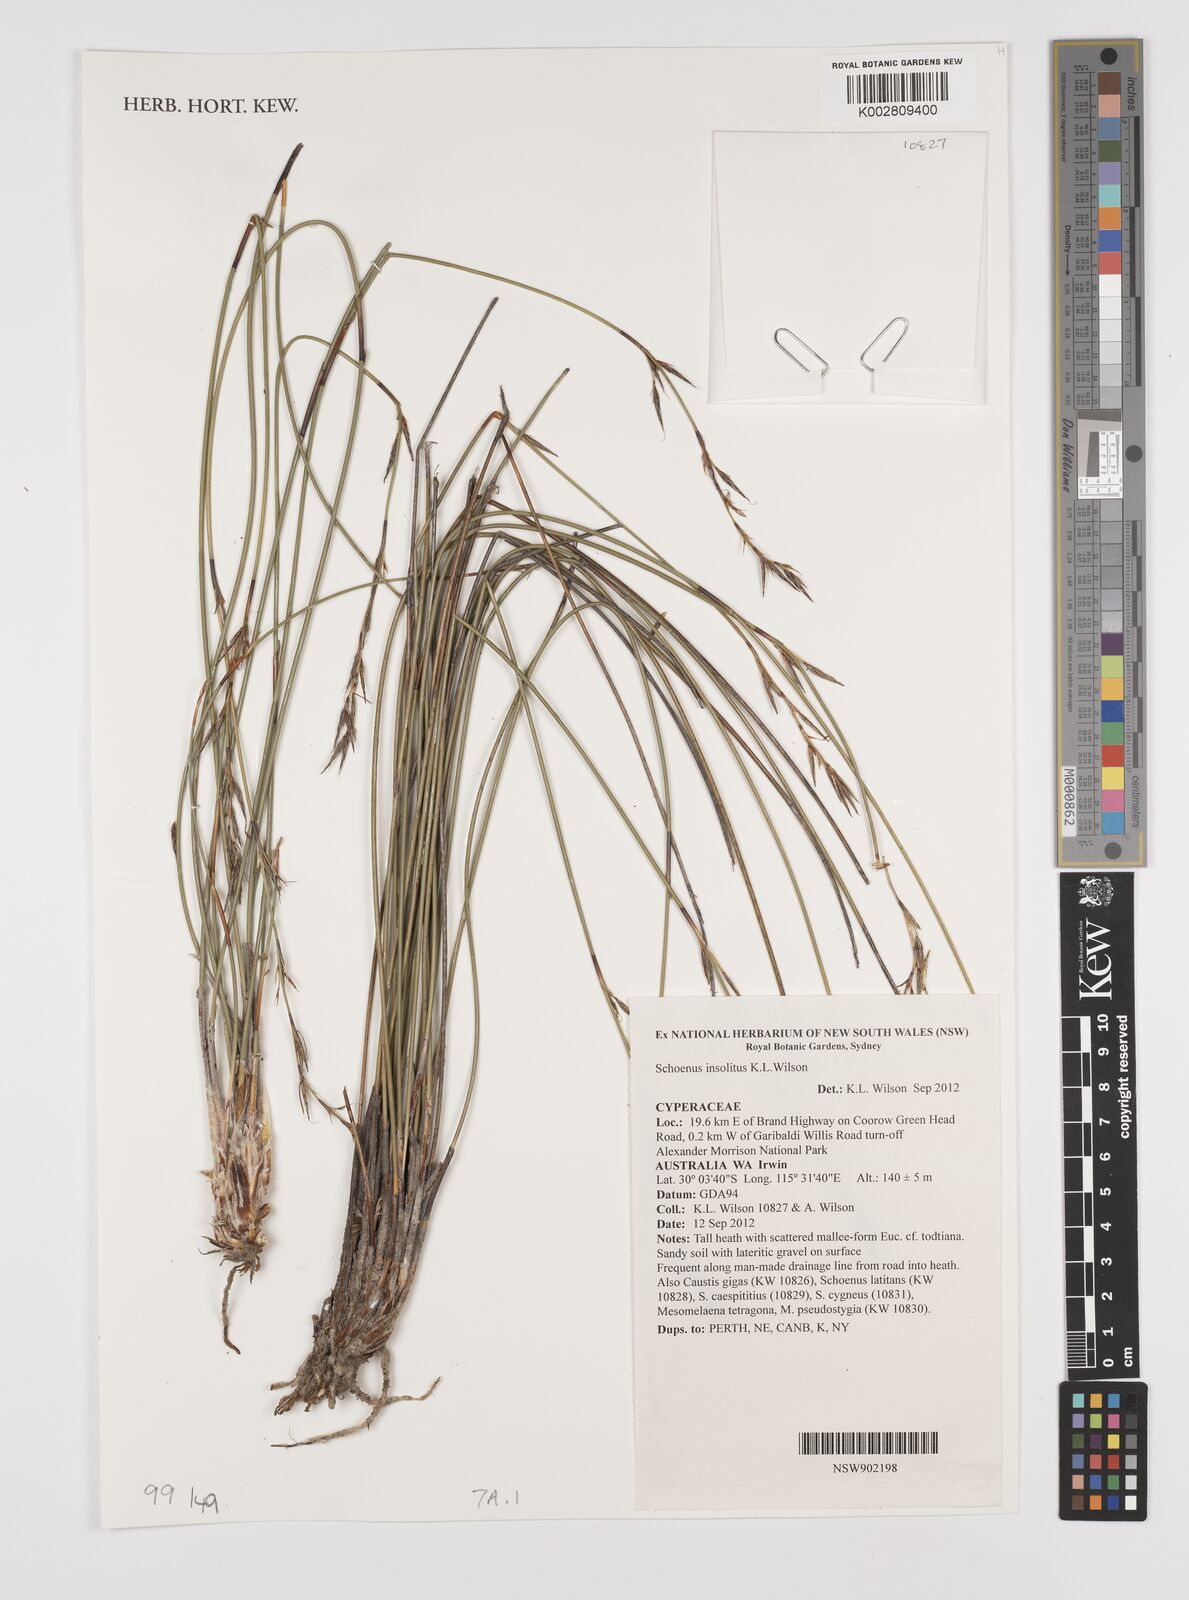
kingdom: Plantae
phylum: Tracheophyta
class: Liliopsida
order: Poales
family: Cyperaceae
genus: Schoenus
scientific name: Schoenus insolitus
